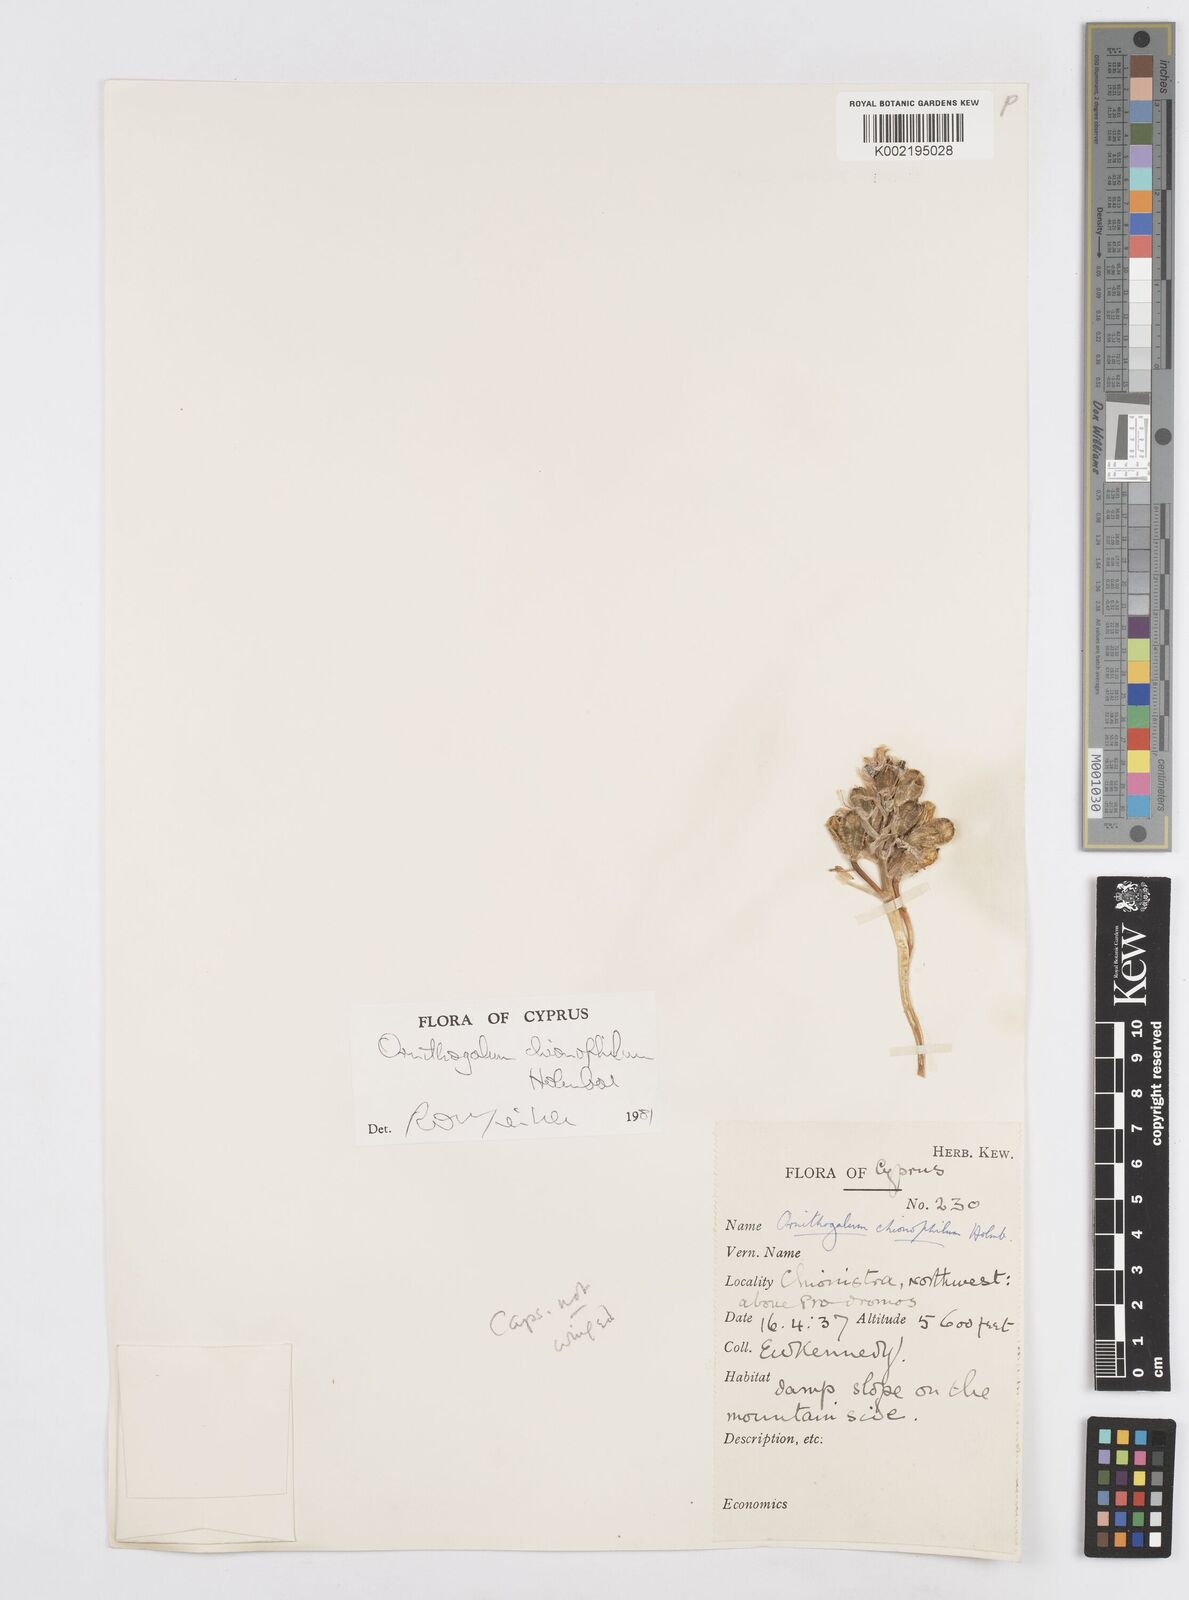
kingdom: Plantae
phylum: Tracheophyta
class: Liliopsida
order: Asparagales
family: Asparagaceae
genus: Ornithogalum
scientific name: Ornithogalum chionophilum
